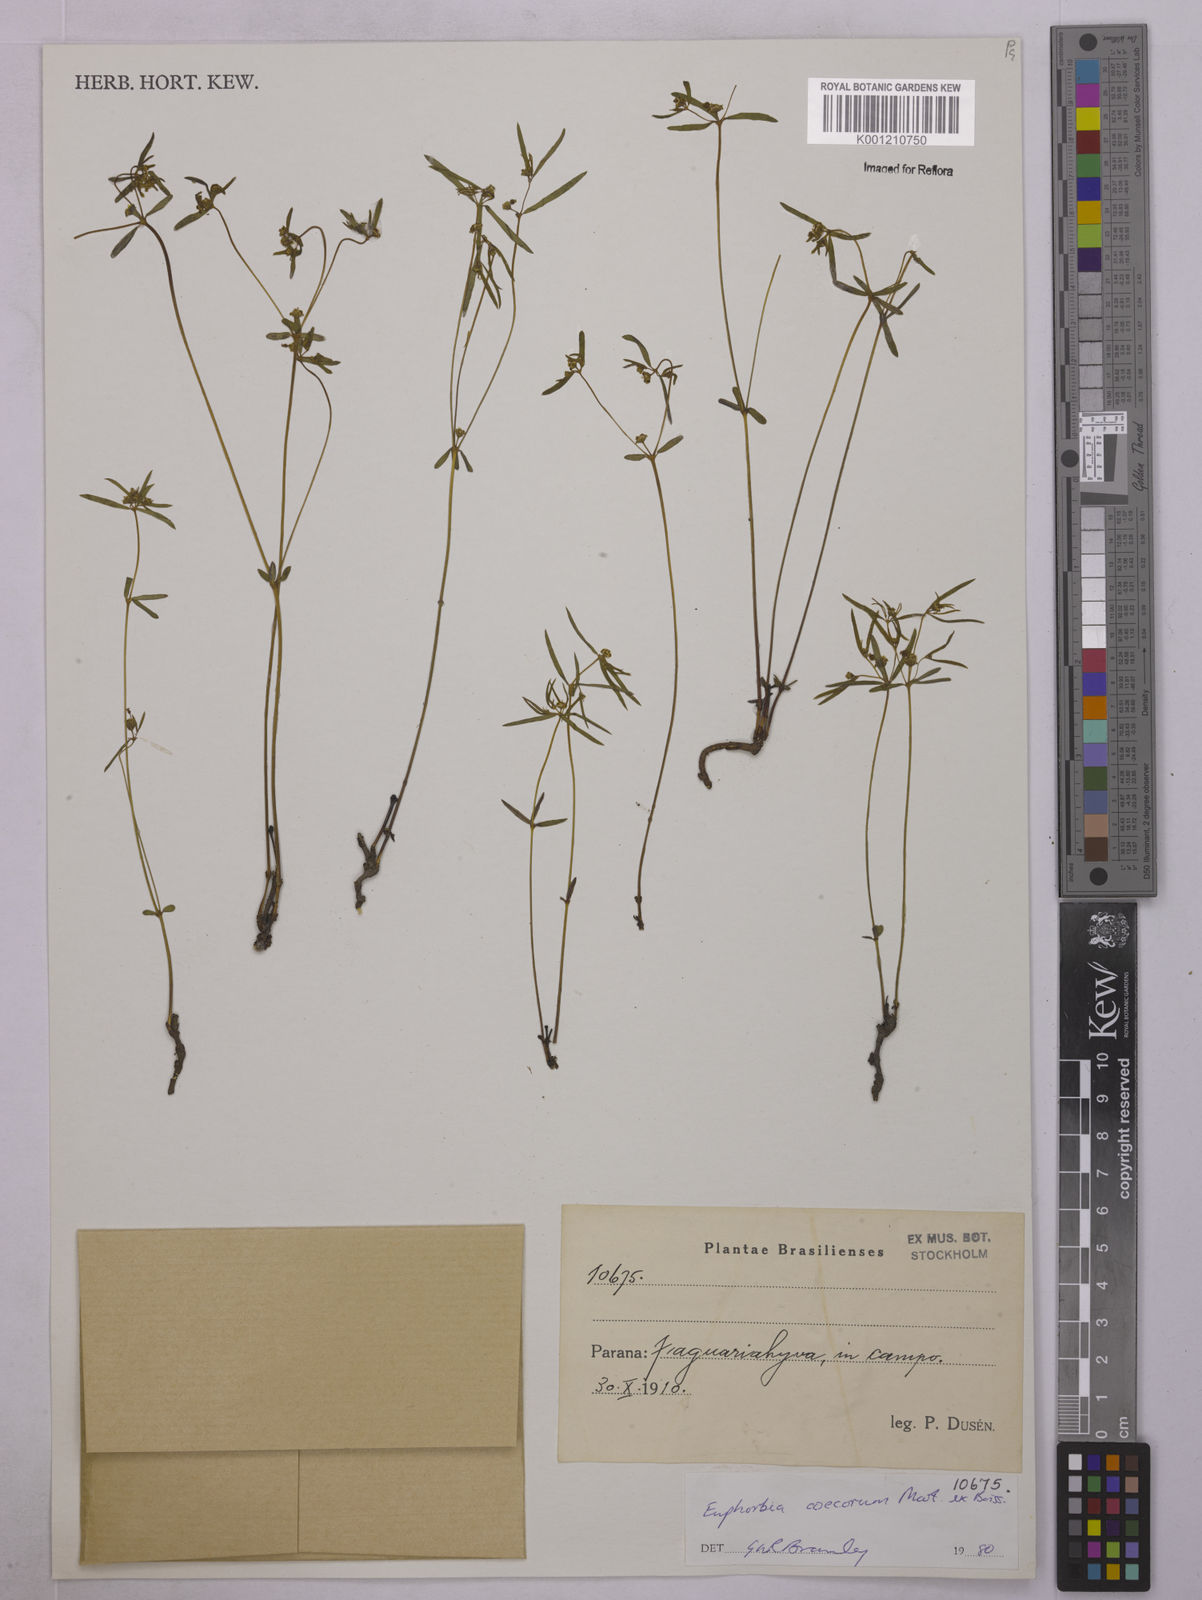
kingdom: Plantae
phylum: Tracheophyta
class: Magnoliopsida
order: Malpighiales
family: Euphorbiaceae
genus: Euphorbia
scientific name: Euphorbia potentilloides
